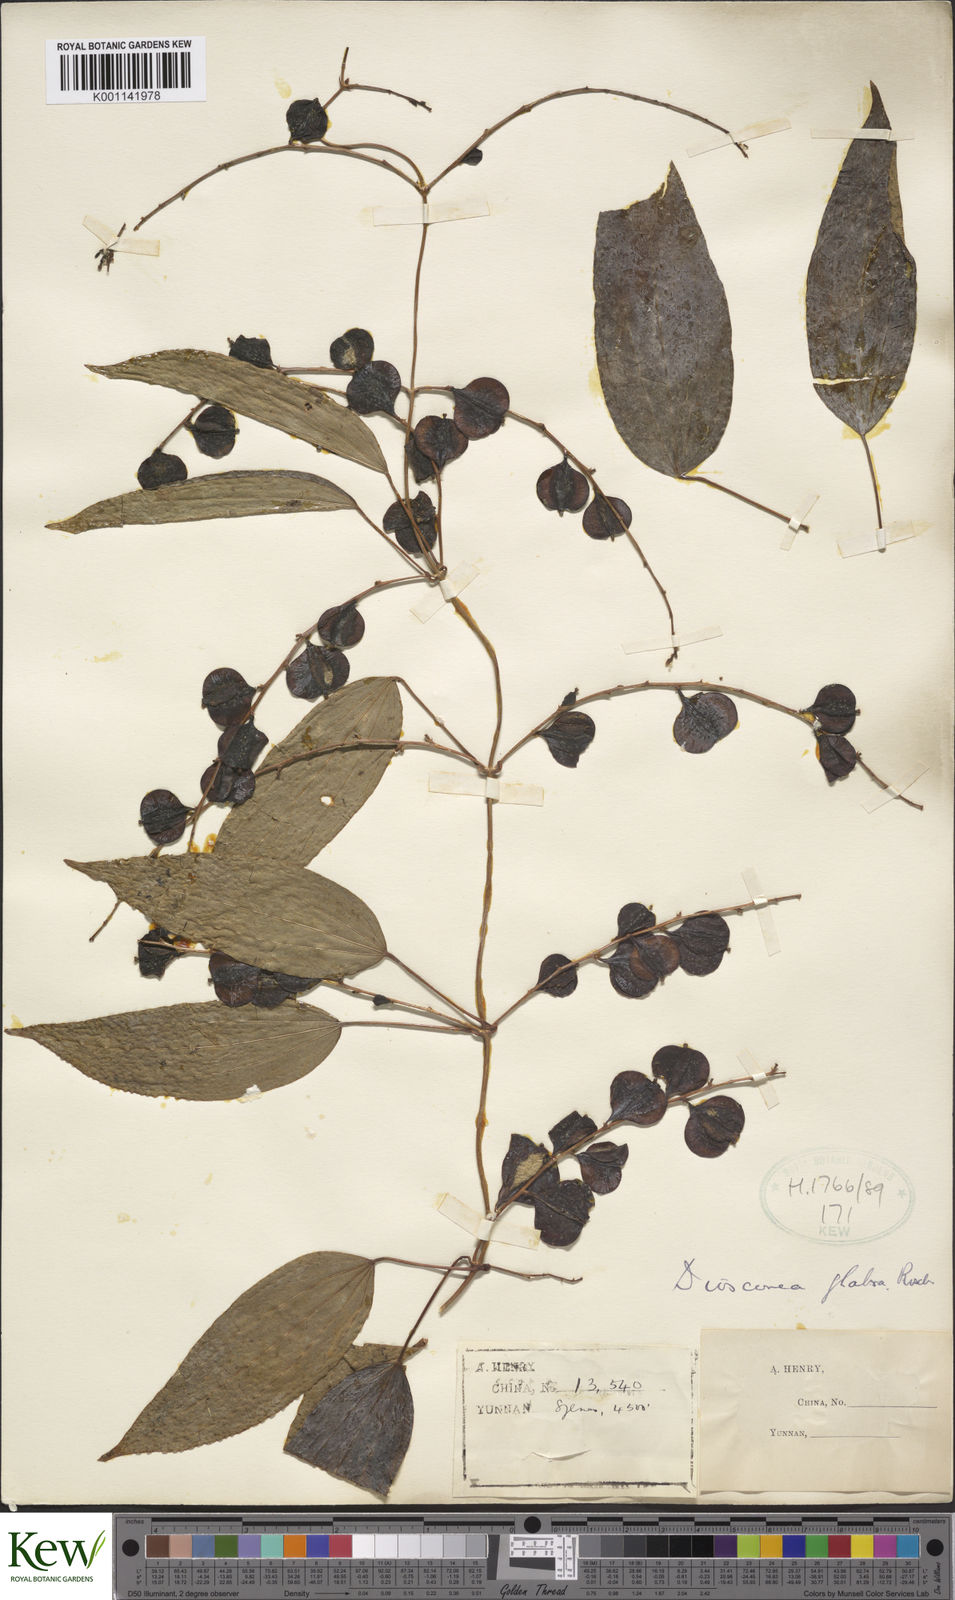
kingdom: Plantae
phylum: Tracheophyta
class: Liliopsida
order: Dioscoreales
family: Dioscoreaceae
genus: Dioscorea
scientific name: Dioscorea glabra
